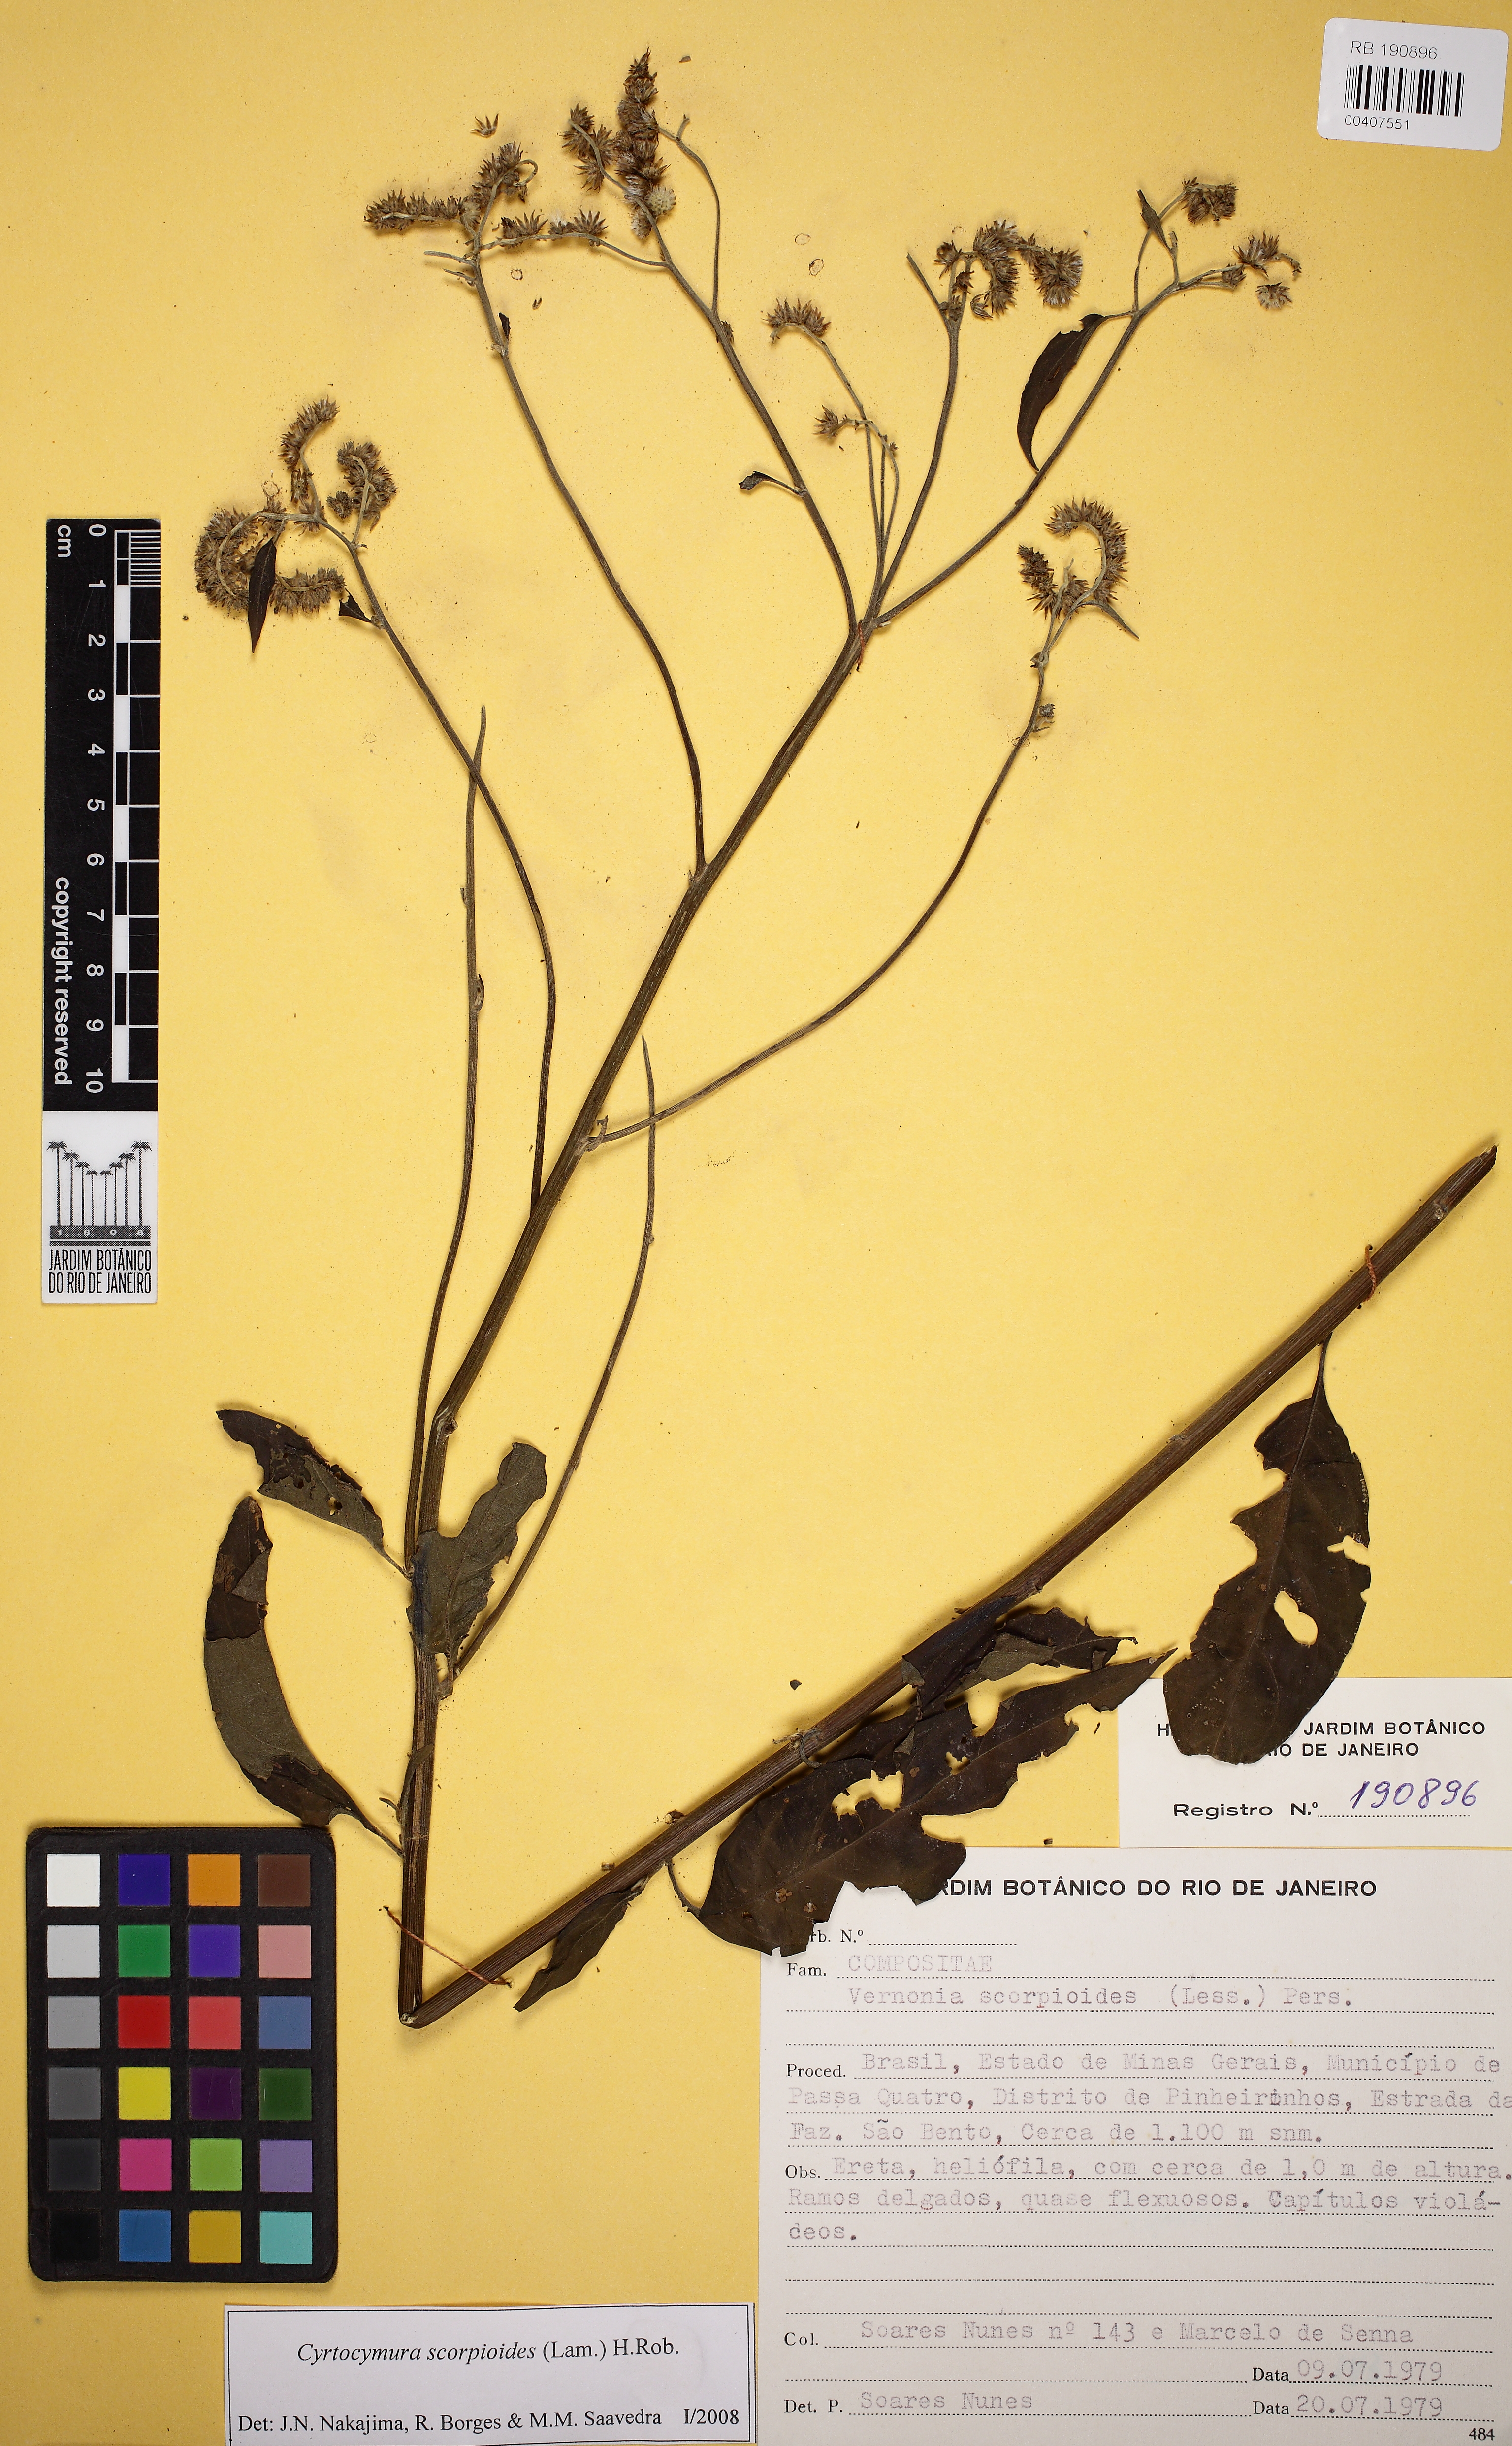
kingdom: Plantae
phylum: Tracheophyta
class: Magnoliopsida
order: Asterales
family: Asteraceae
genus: Cyrtocymura
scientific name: Cyrtocymura scorpioides
